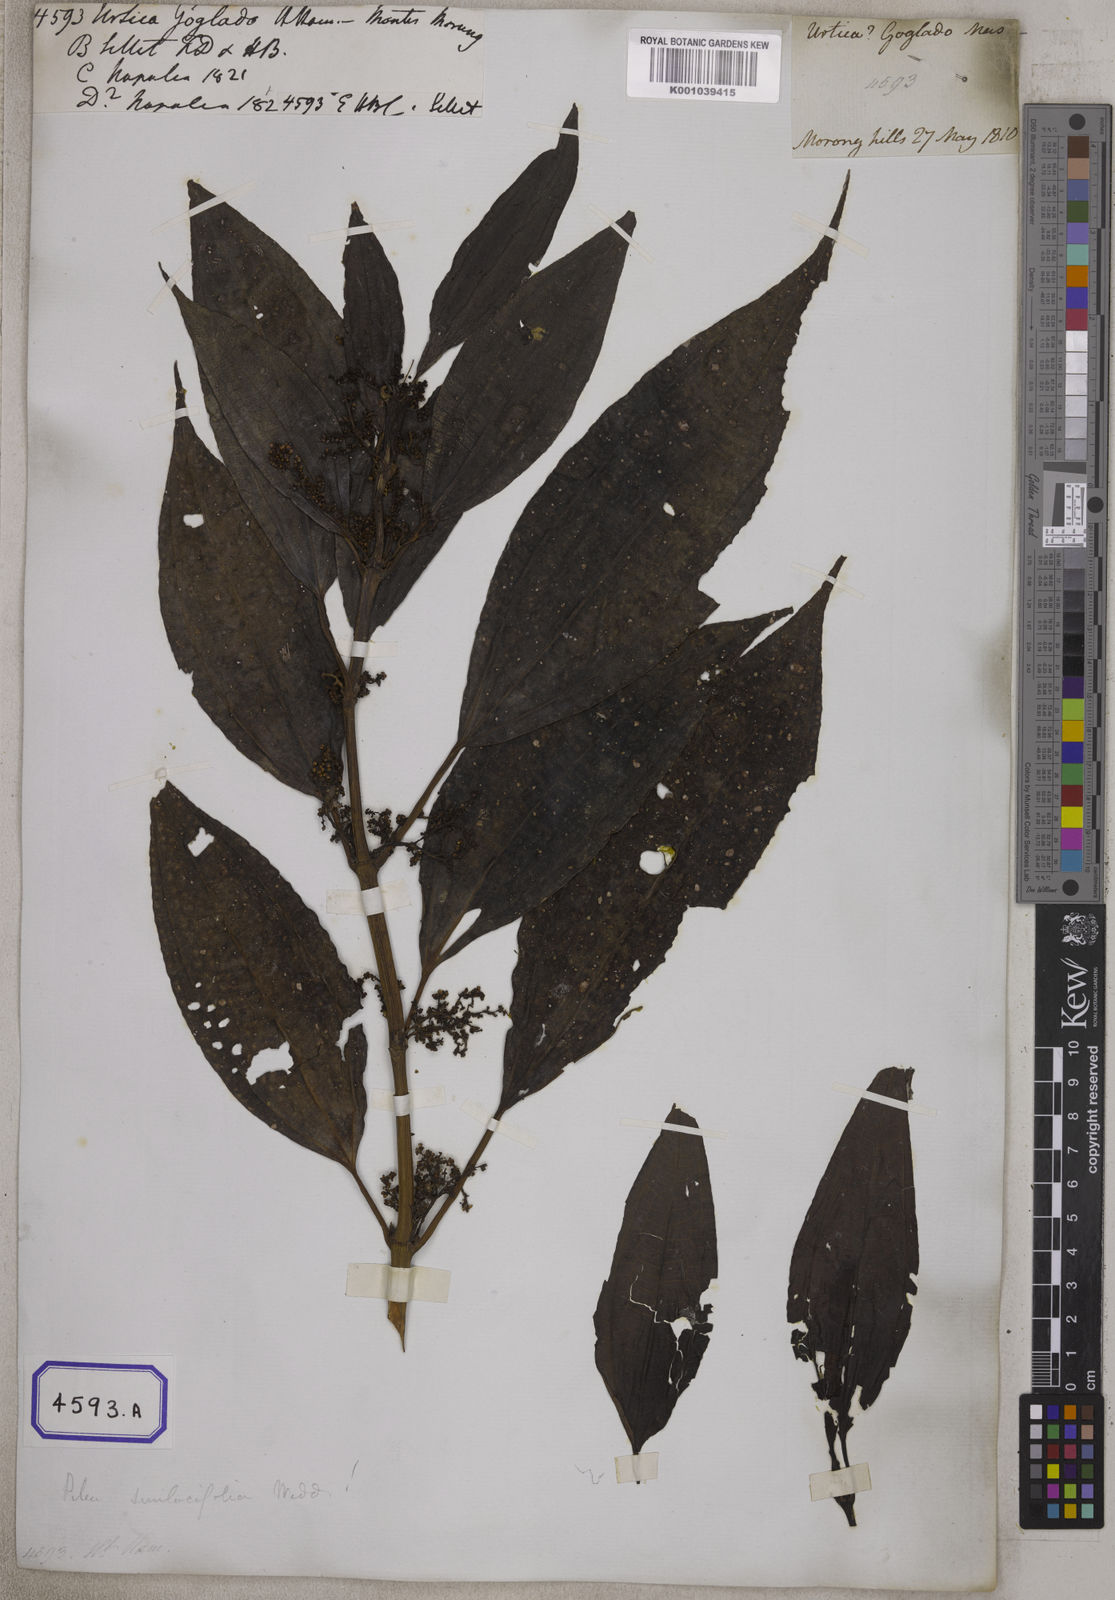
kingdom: Plantae
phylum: Tracheophyta
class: Magnoliopsida
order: Rosales
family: Urticaceae
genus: Urtica
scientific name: Urtica
